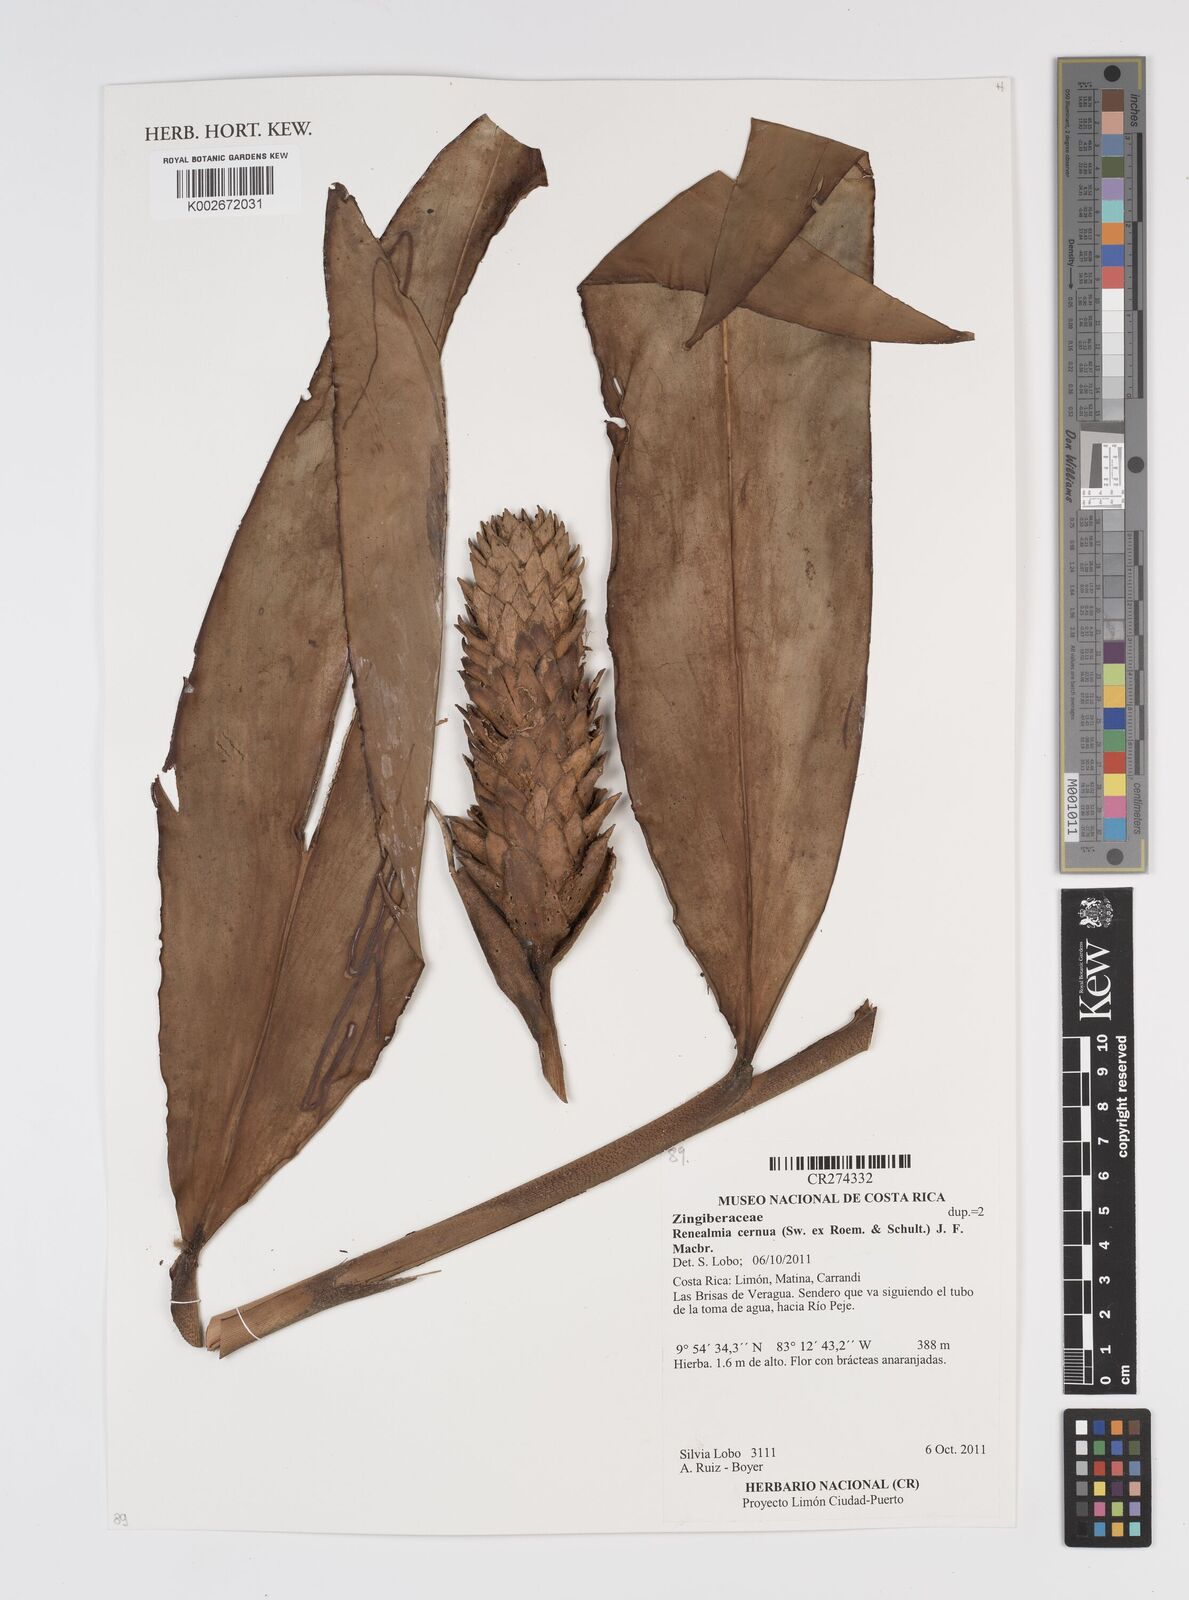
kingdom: Plantae
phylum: Tracheophyta
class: Liliopsida
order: Zingiberales
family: Zingiberaceae
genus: Renealmia
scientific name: Renealmia cernua
